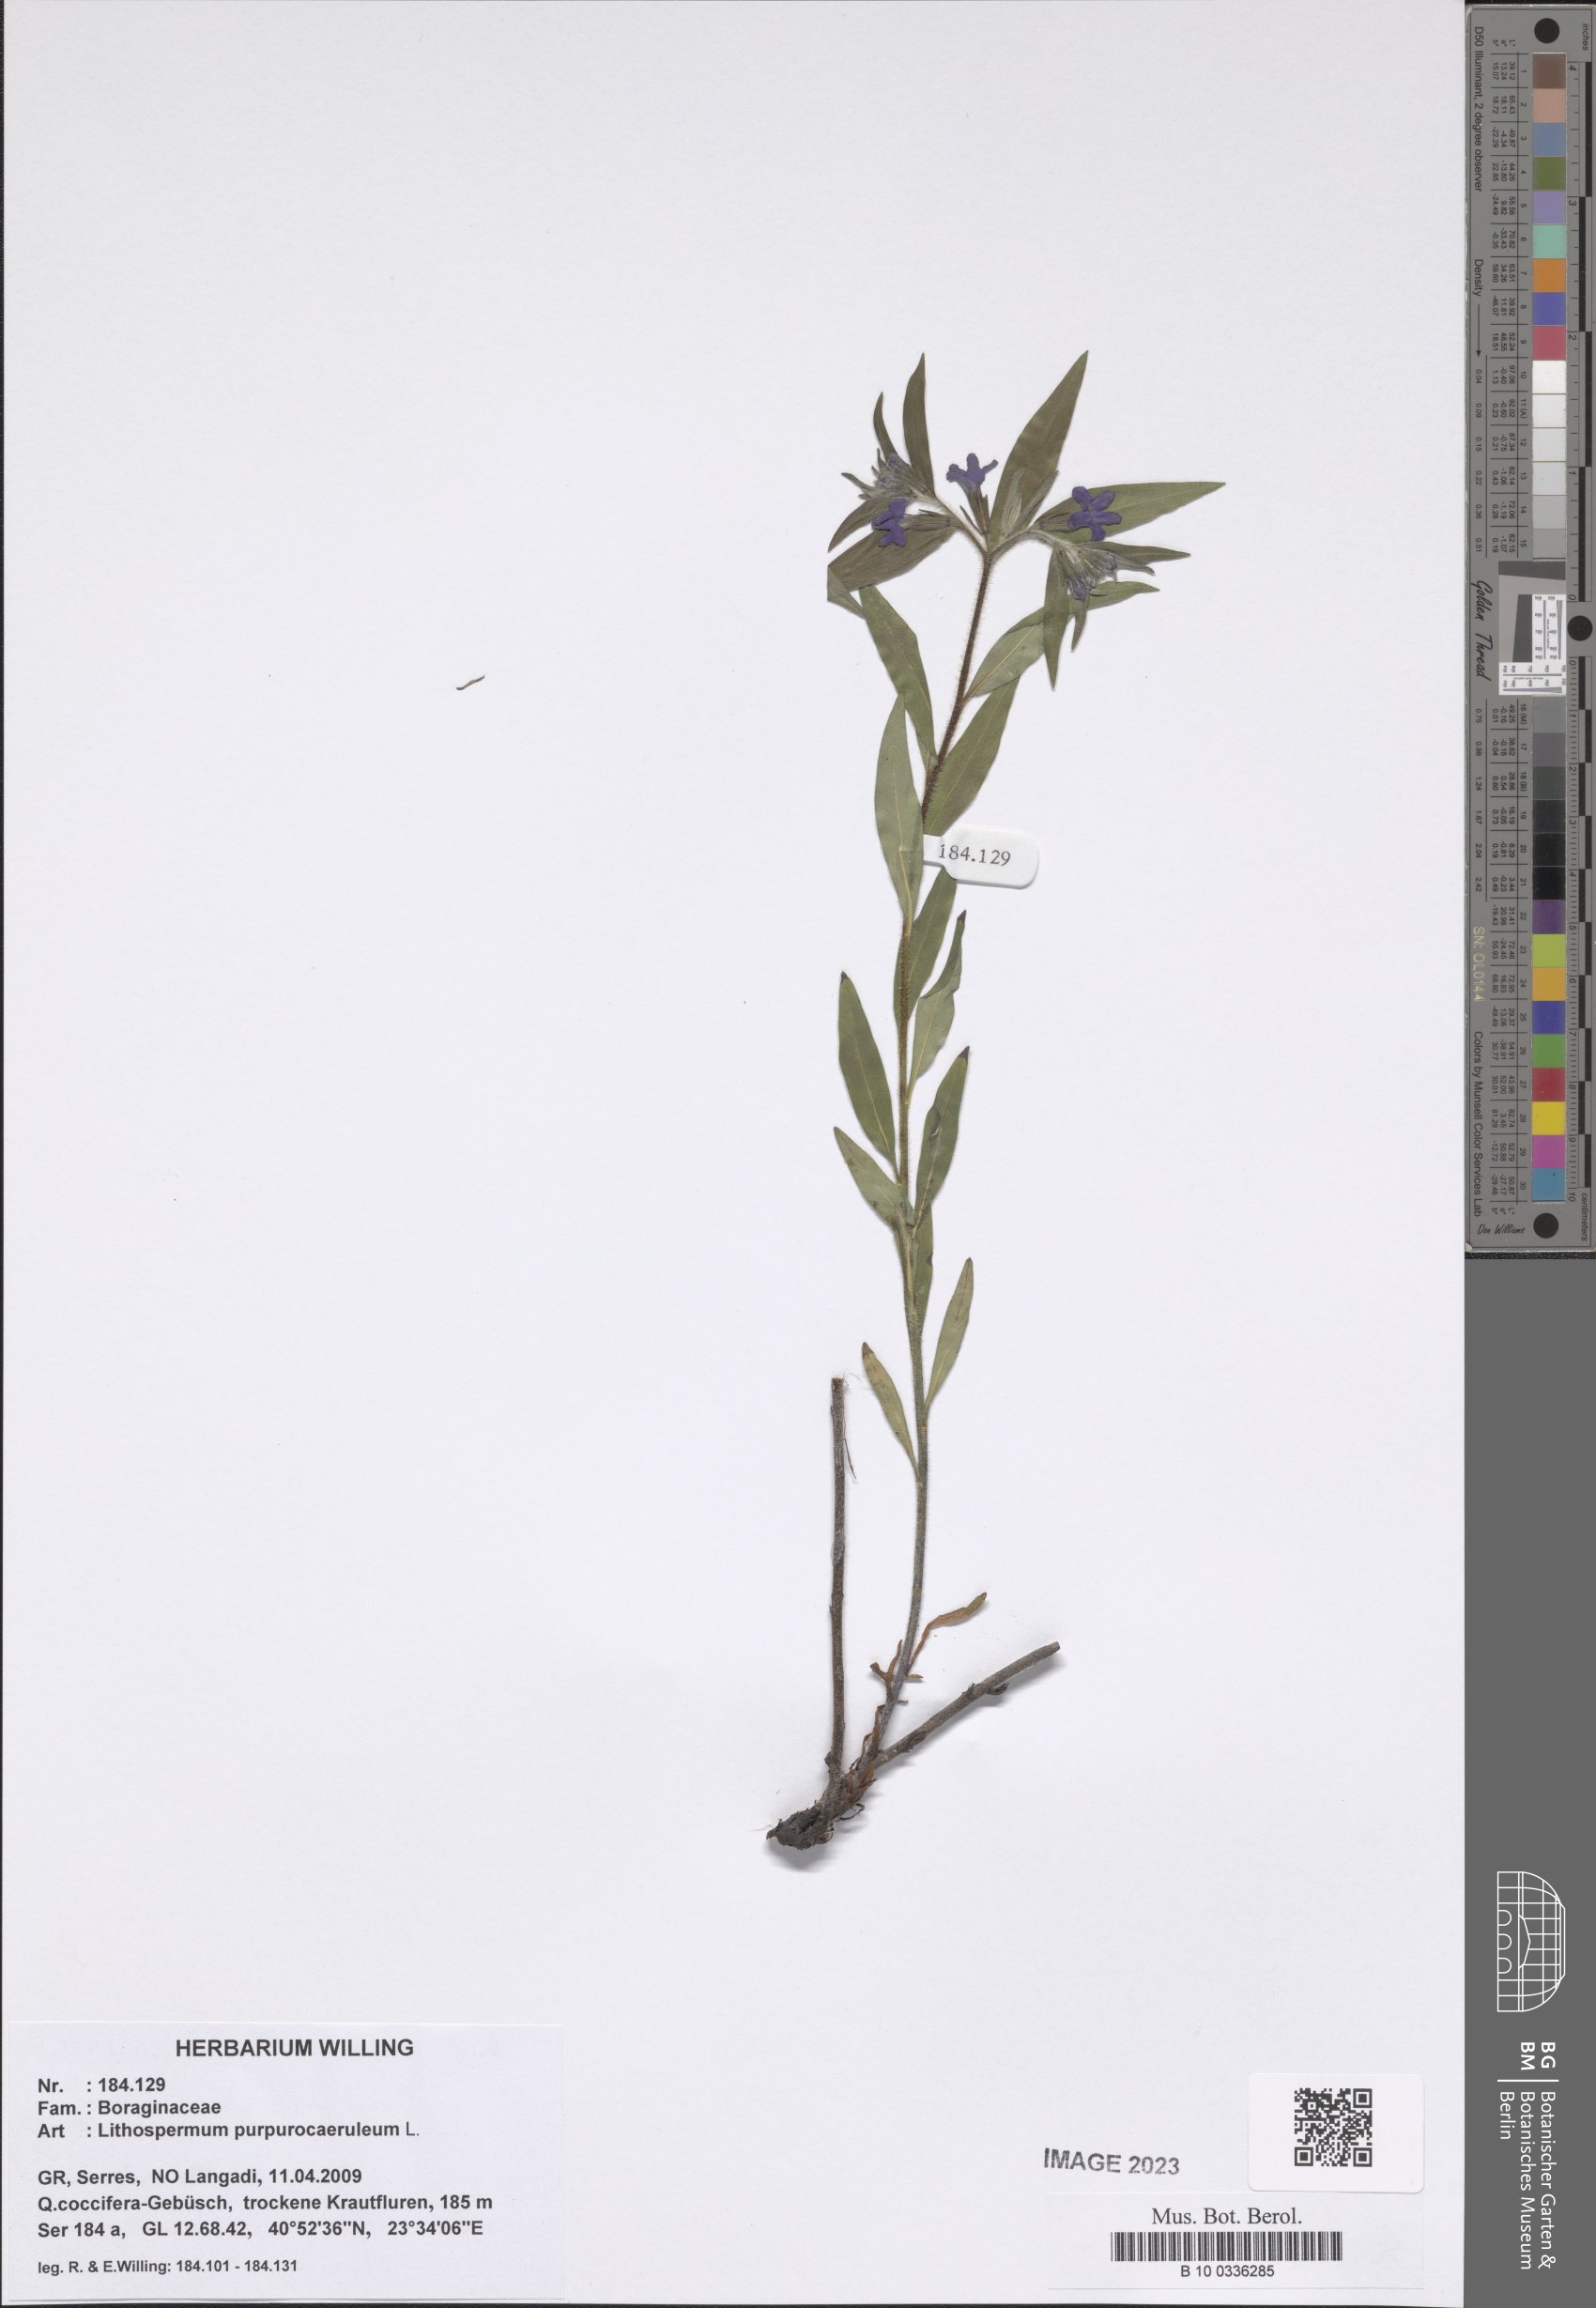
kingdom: Plantae
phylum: Tracheophyta
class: Magnoliopsida
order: Boraginales
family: Boraginaceae
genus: Aegonychon
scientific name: Aegonychon purpurocaeruleum
